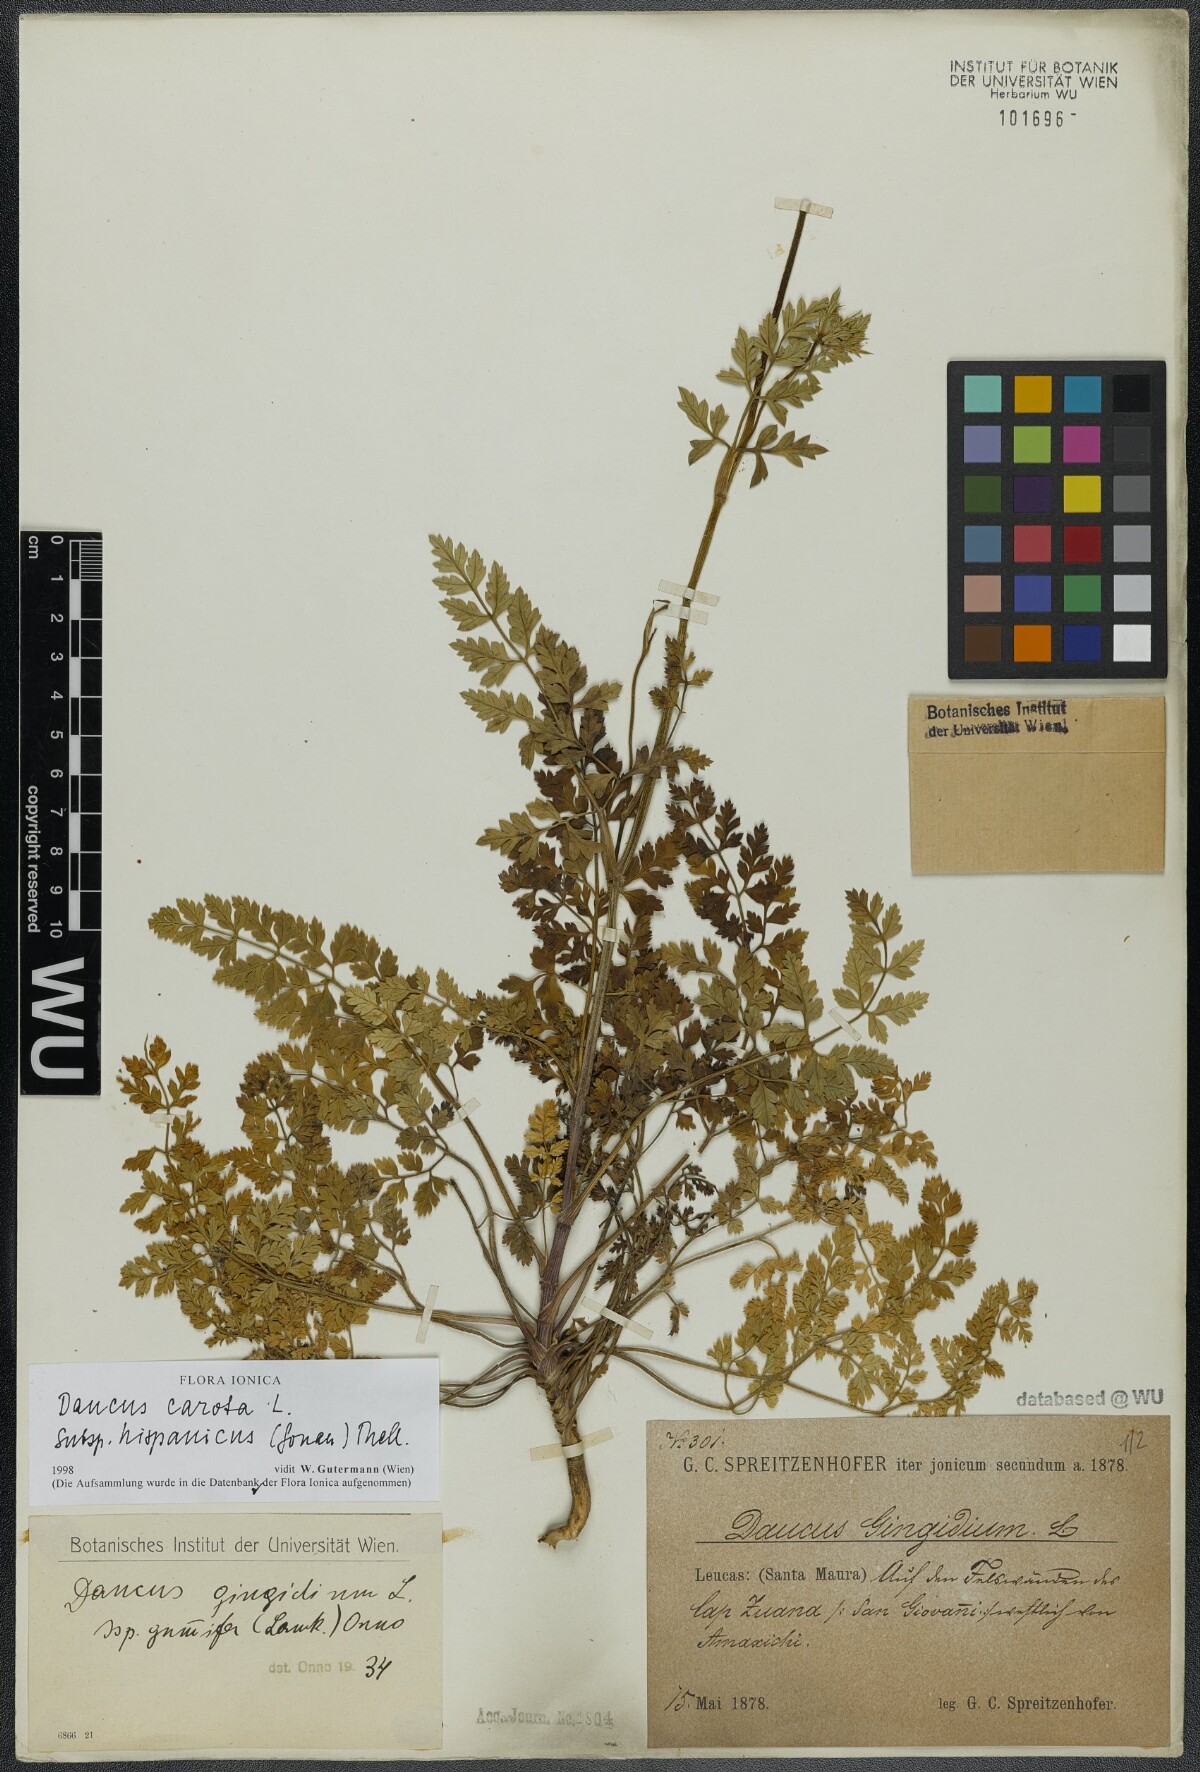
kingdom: Plantae
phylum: Tracheophyta
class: Magnoliopsida
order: Apiales
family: Apiaceae
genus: Daucus
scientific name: Daucus carota
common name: Wild carrot
